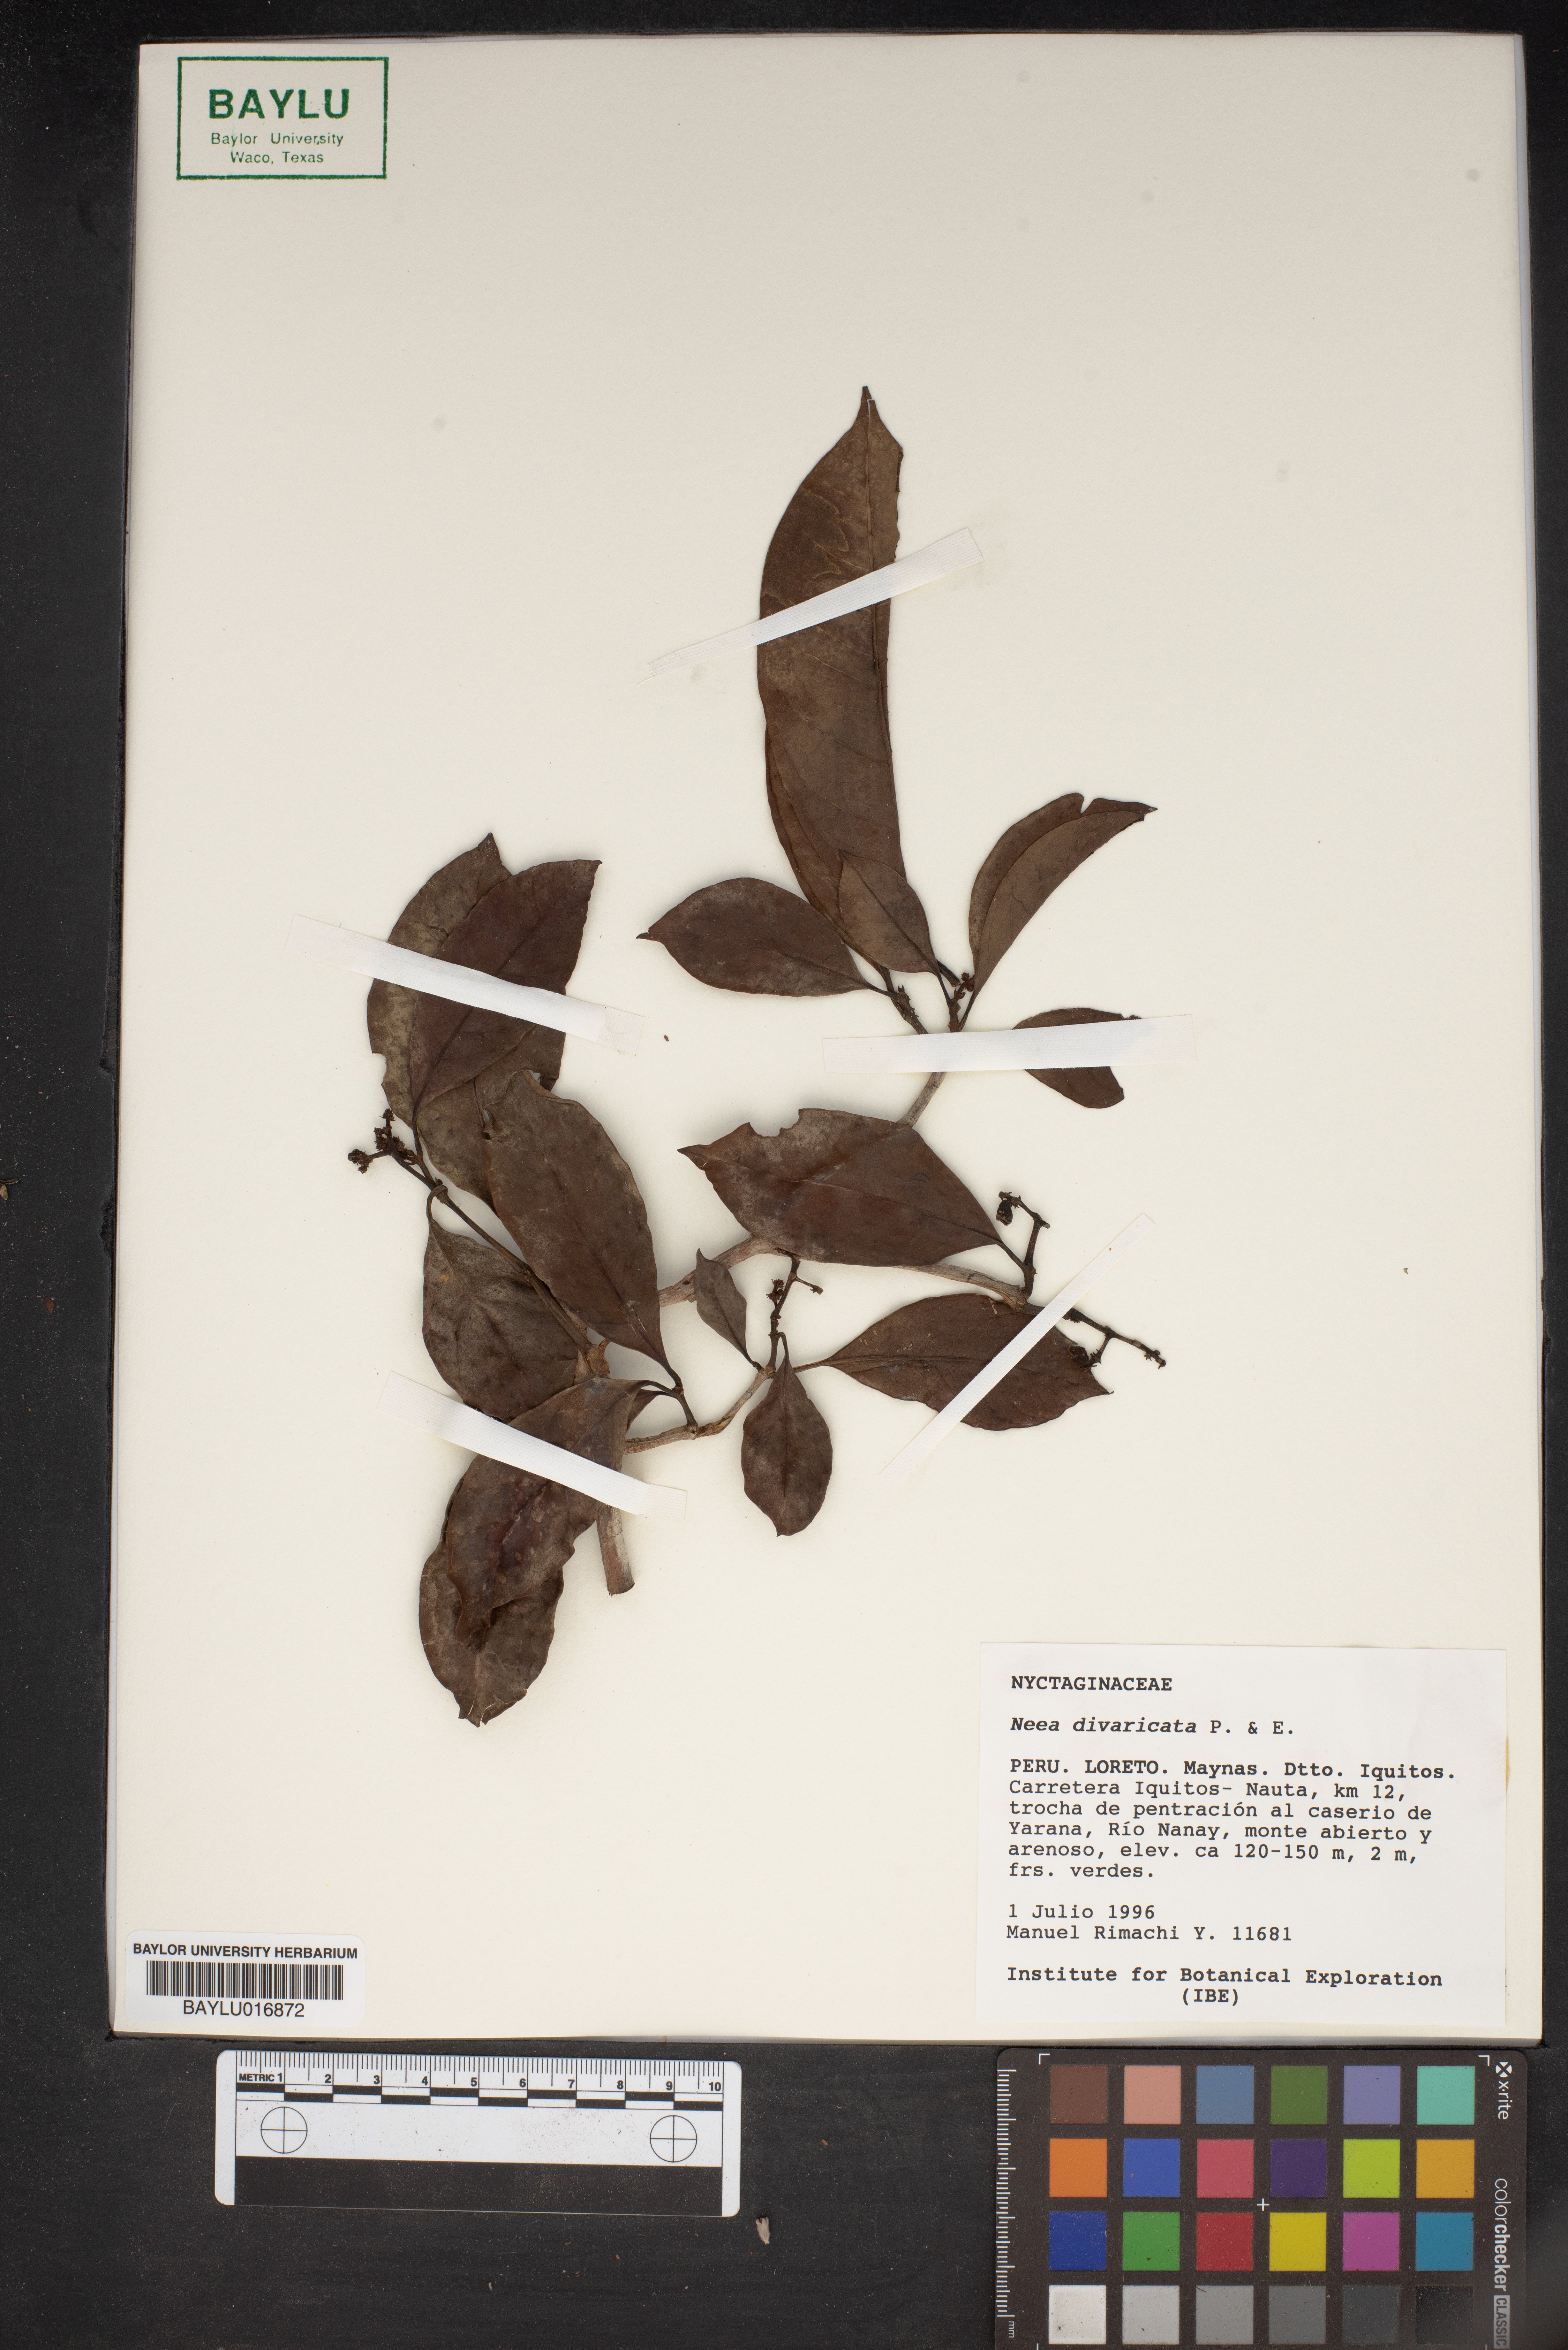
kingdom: Plantae
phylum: Tracheophyta
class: Magnoliopsida
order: Caryophyllales
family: Nyctaginaceae
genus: Neea
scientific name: Neea divaricata
